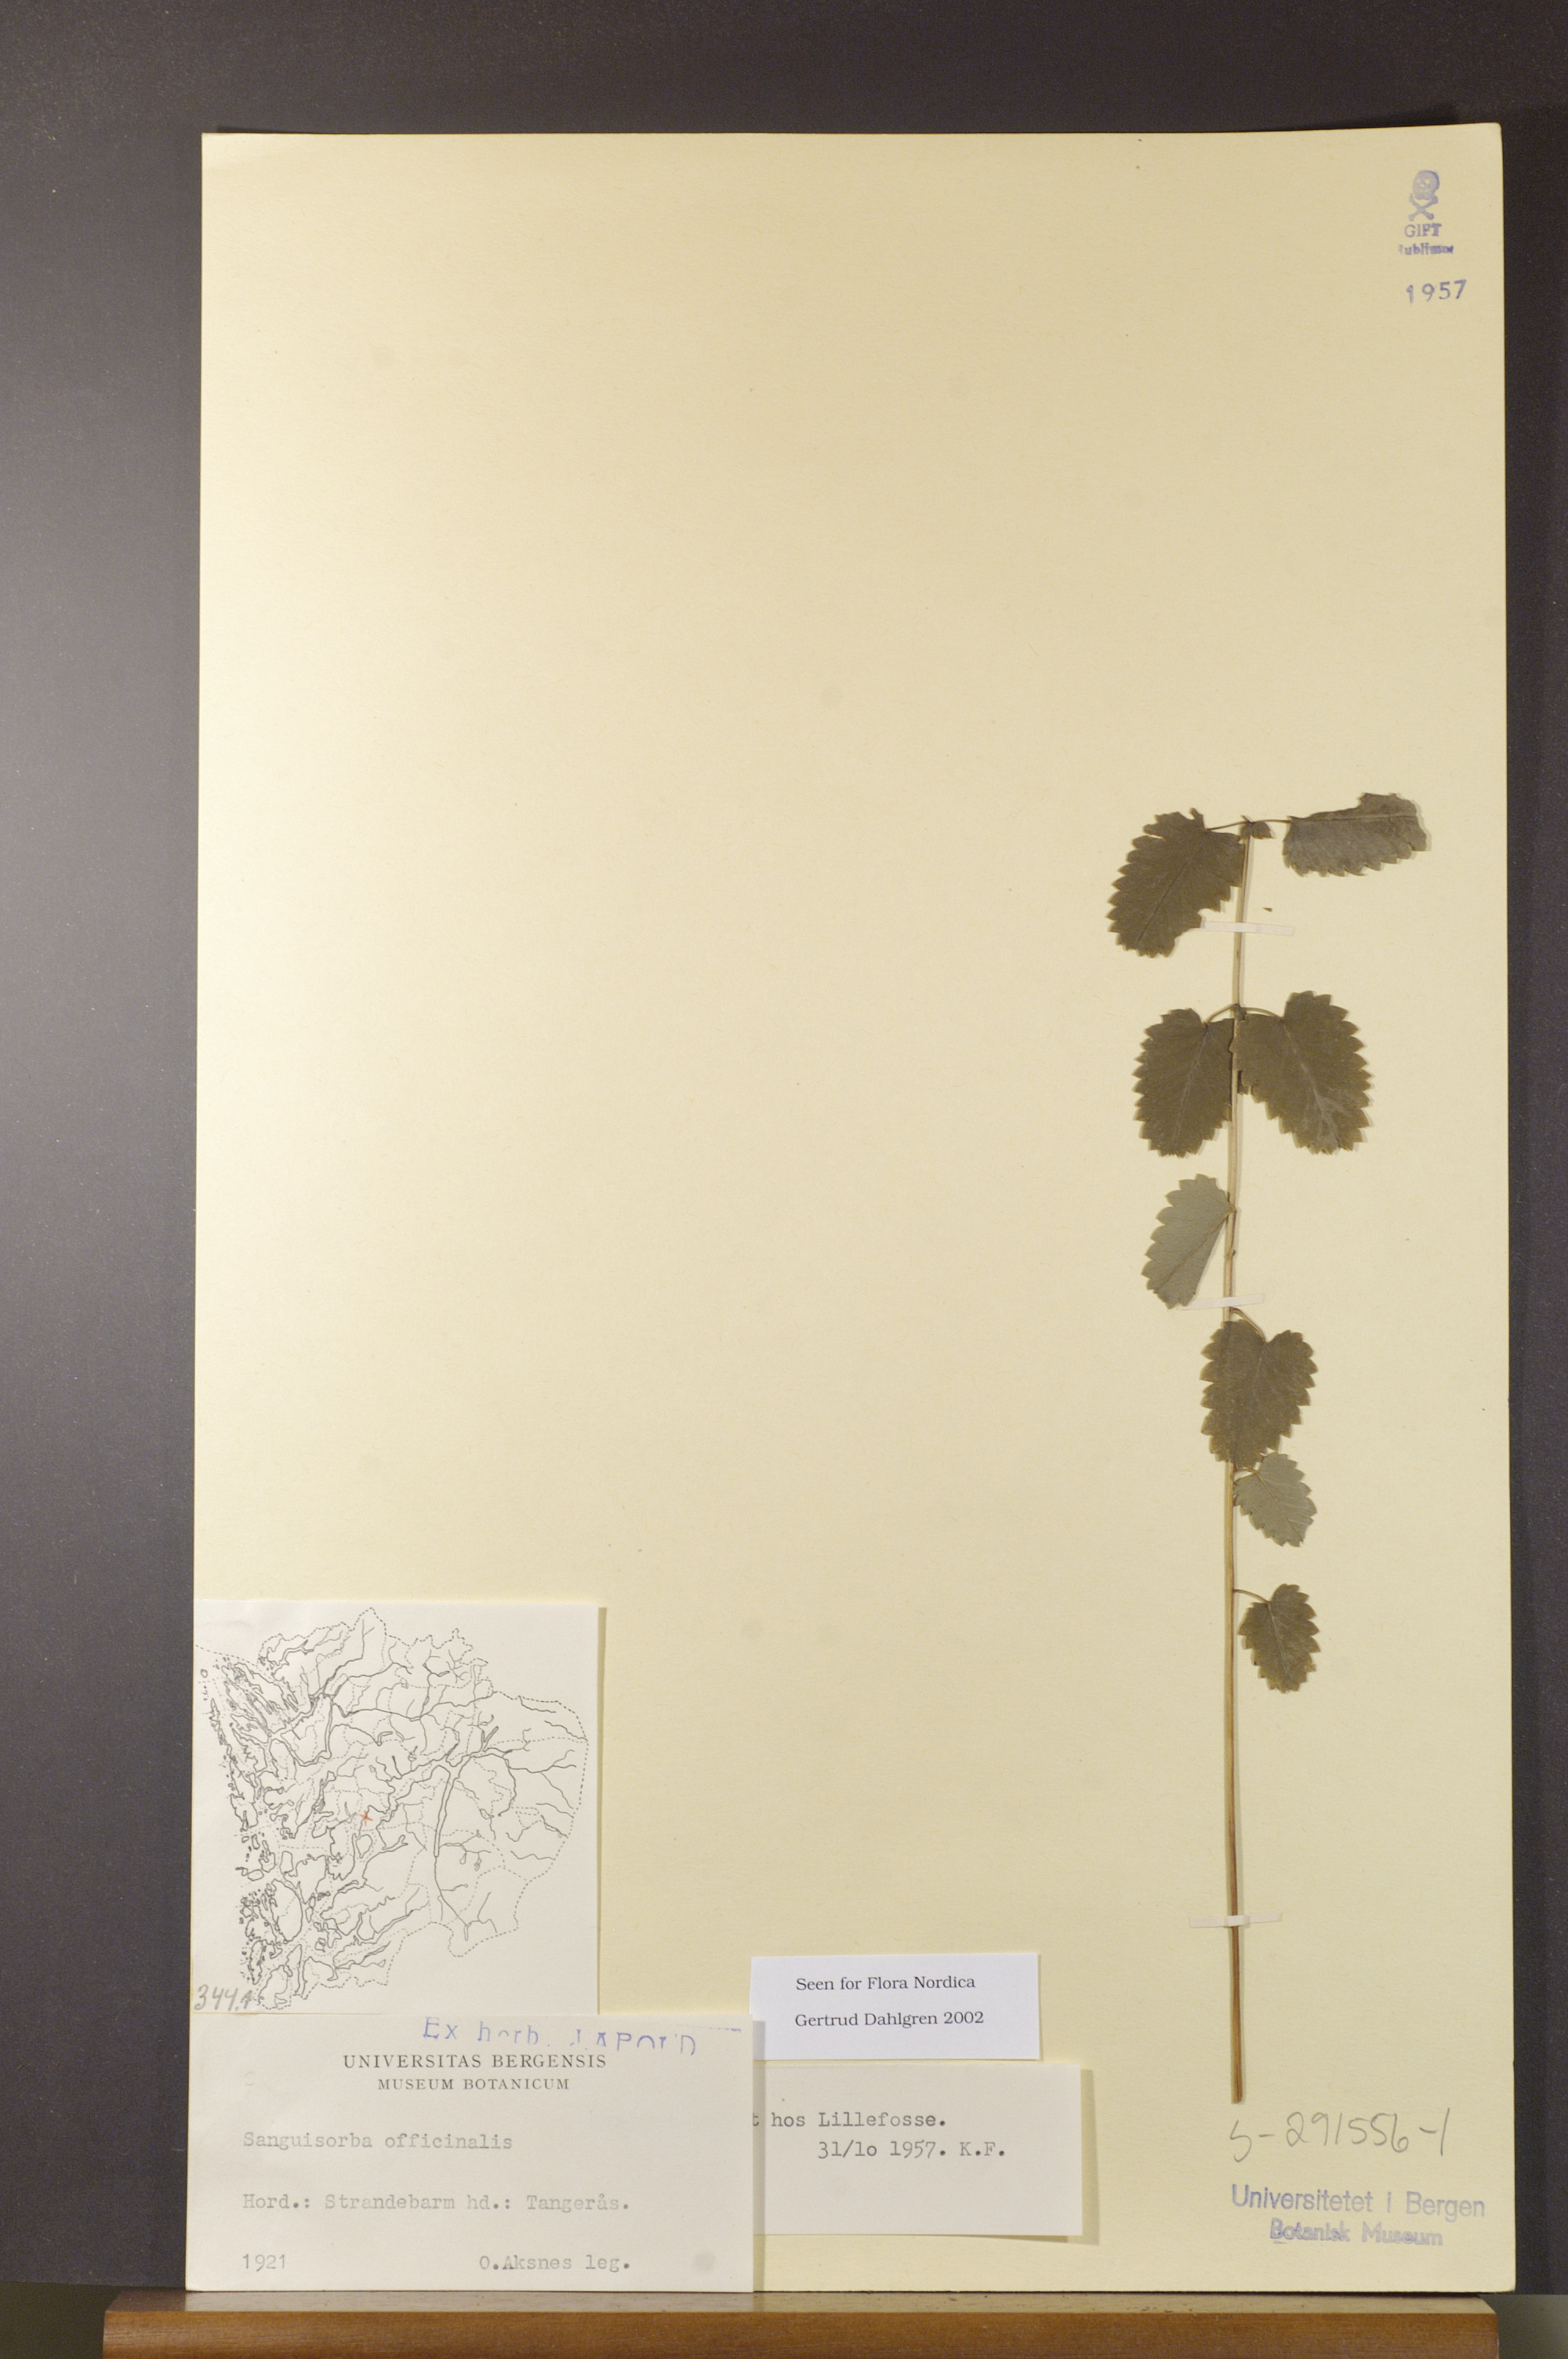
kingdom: Plantae
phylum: Tracheophyta
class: Magnoliopsida
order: Rosales
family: Rosaceae
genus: Sanguisorba
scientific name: Sanguisorba officinalis
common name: Great burnet
